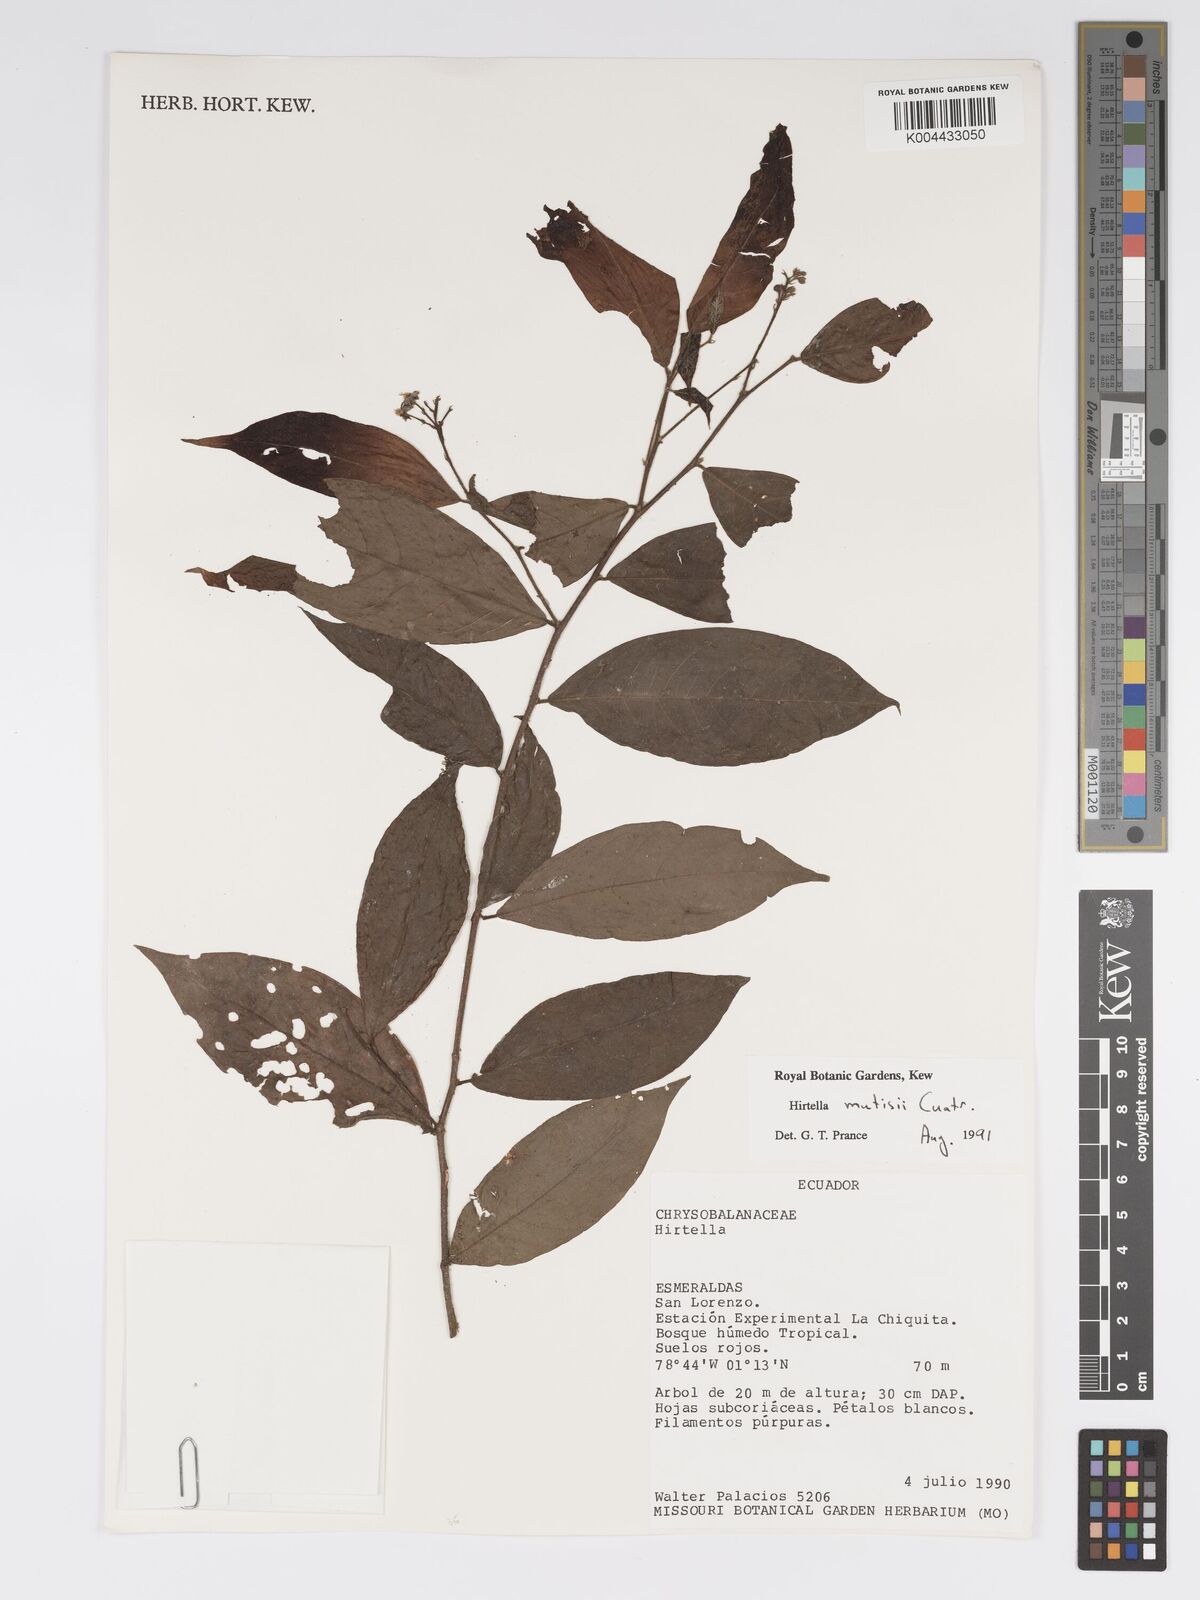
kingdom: Plantae
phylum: Tracheophyta
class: Magnoliopsida
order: Malpighiales
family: Chrysobalanaceae
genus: Hirtella
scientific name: Hirtella mutisii
